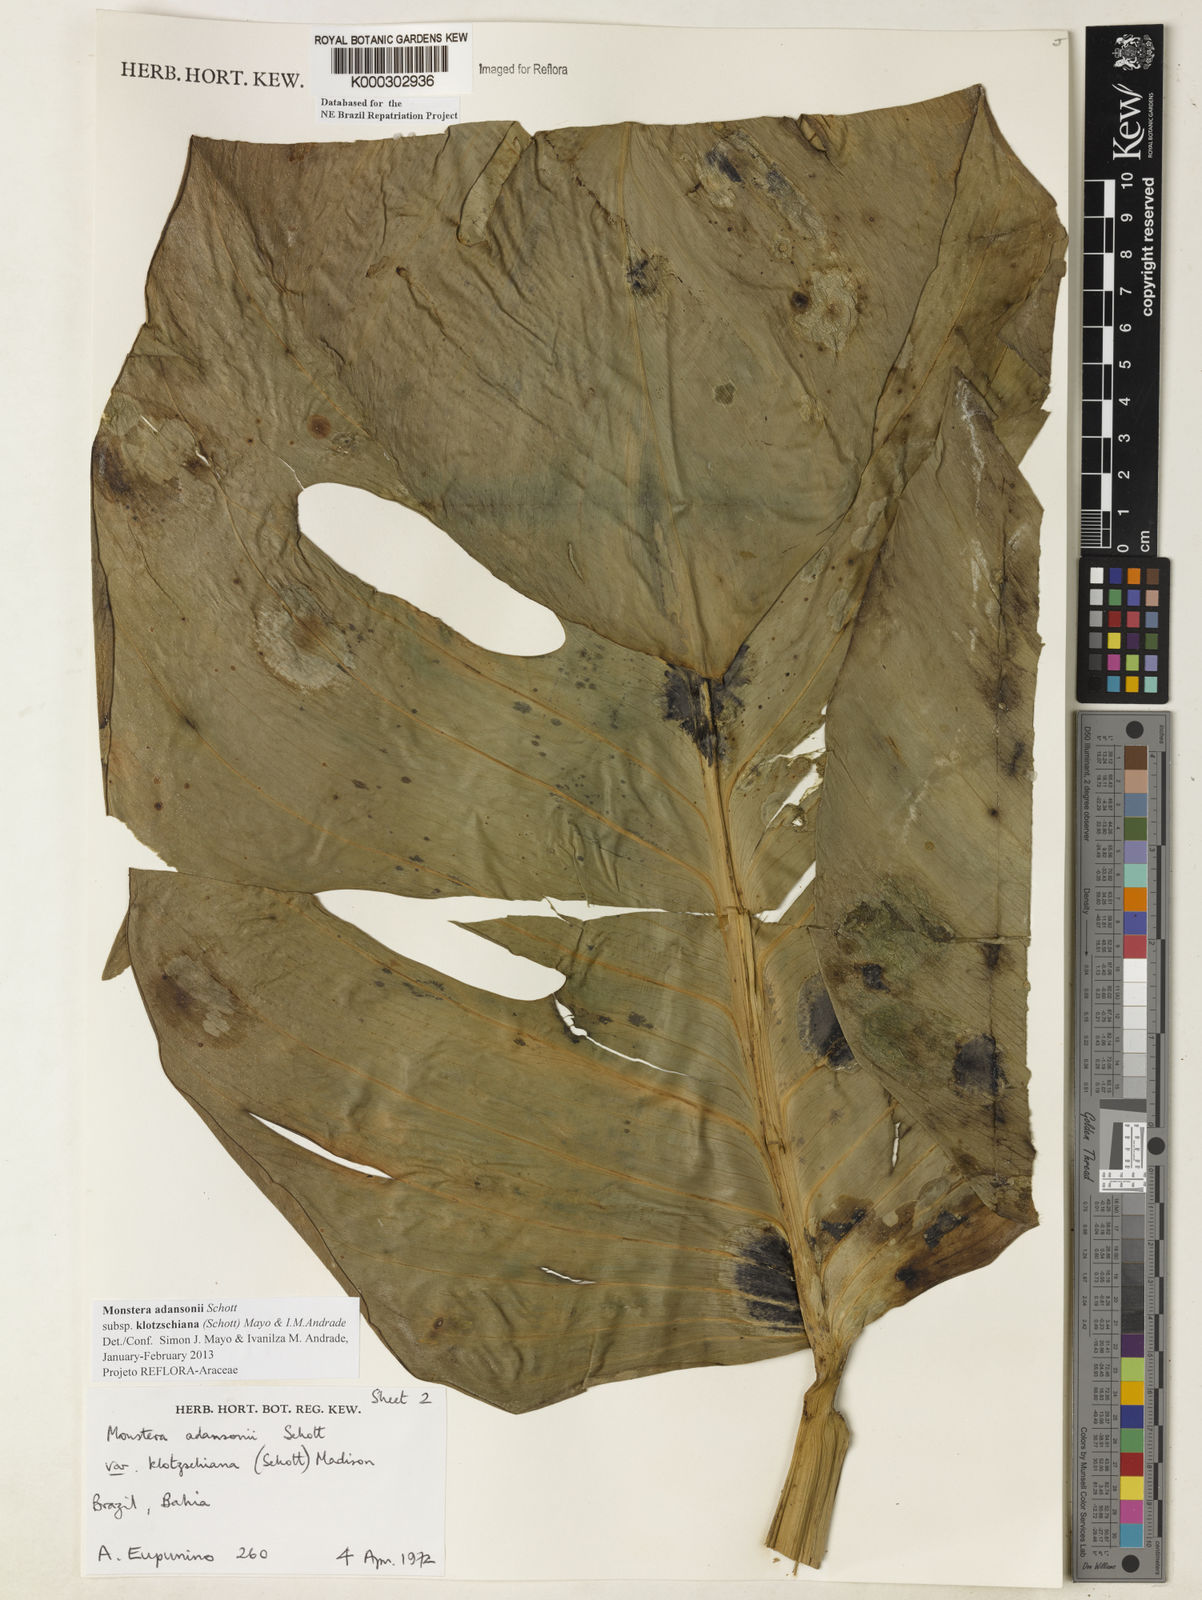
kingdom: Plantae
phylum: Tracheophyta
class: Liliopsida
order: Alismatales
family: Araceae
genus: Monstera
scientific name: Monstera adansonii
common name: Tarovine
